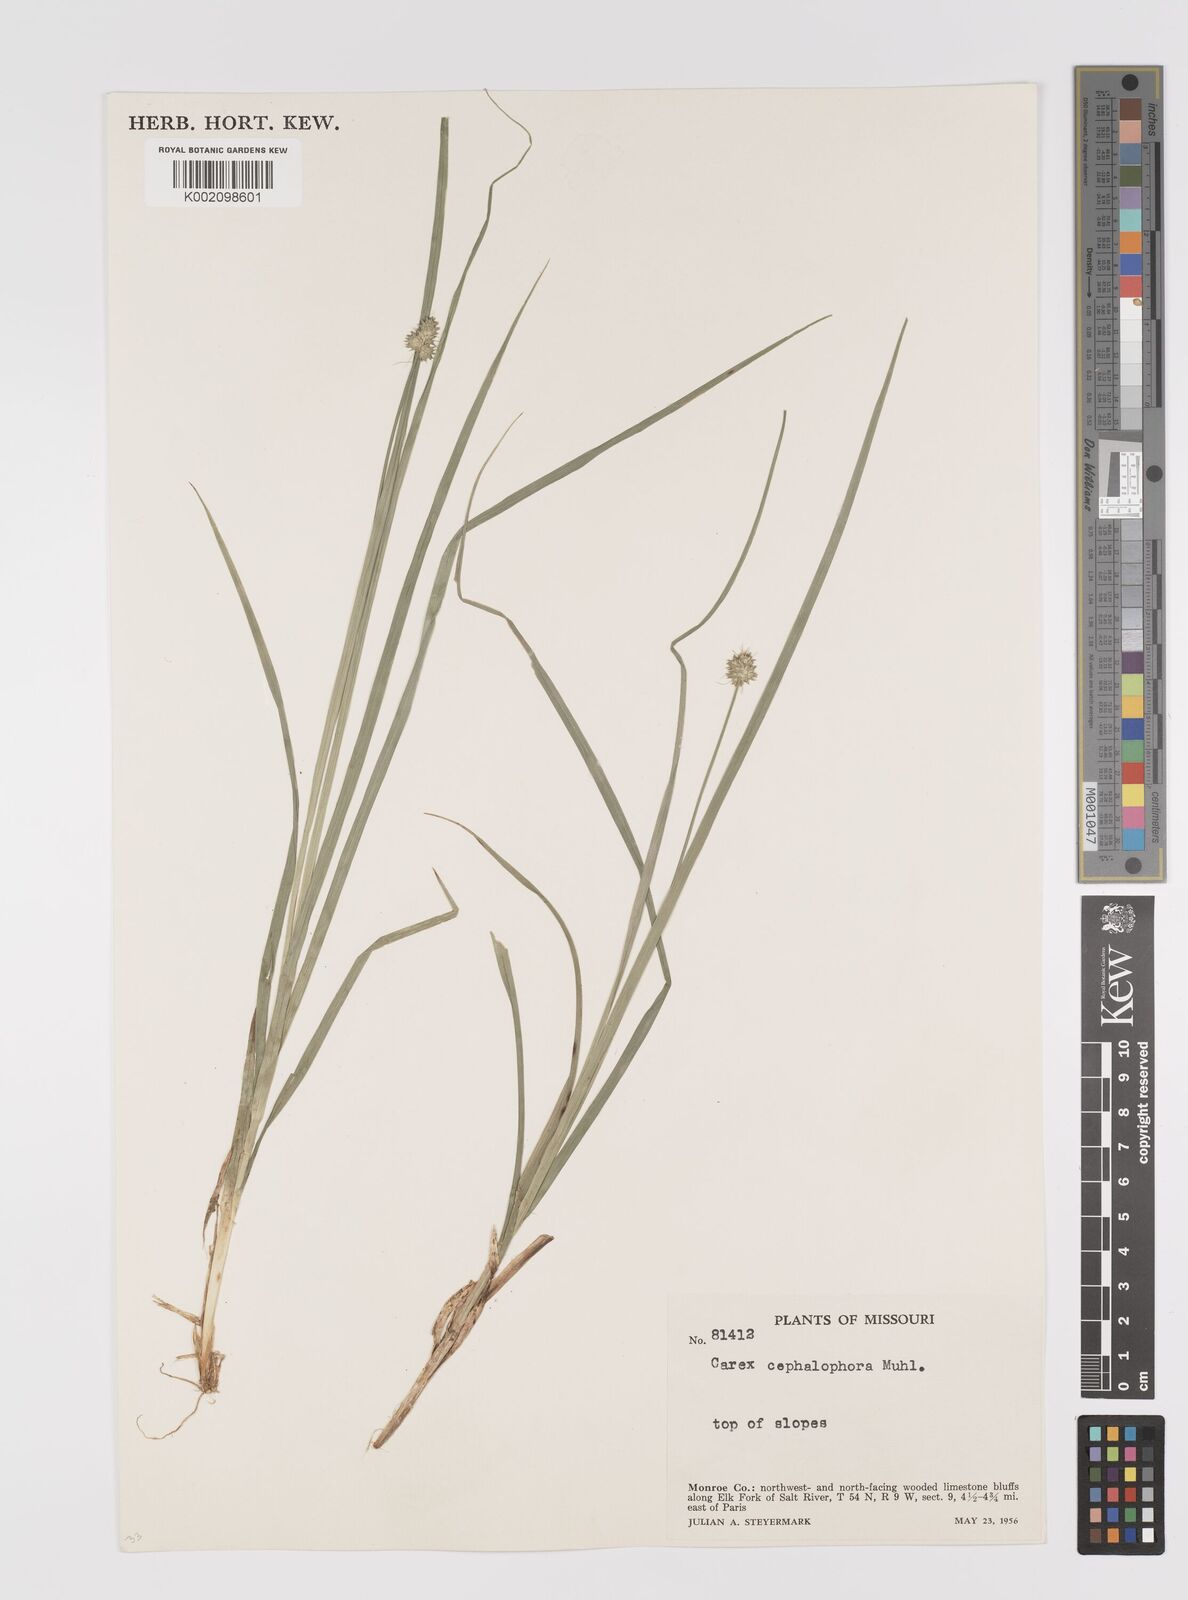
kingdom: Plantae
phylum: Tracheophyta
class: Liliopsida
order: Poales
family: Cyperaceae
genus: Carex
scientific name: Carex cephalophora
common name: Oval-headed sedge
